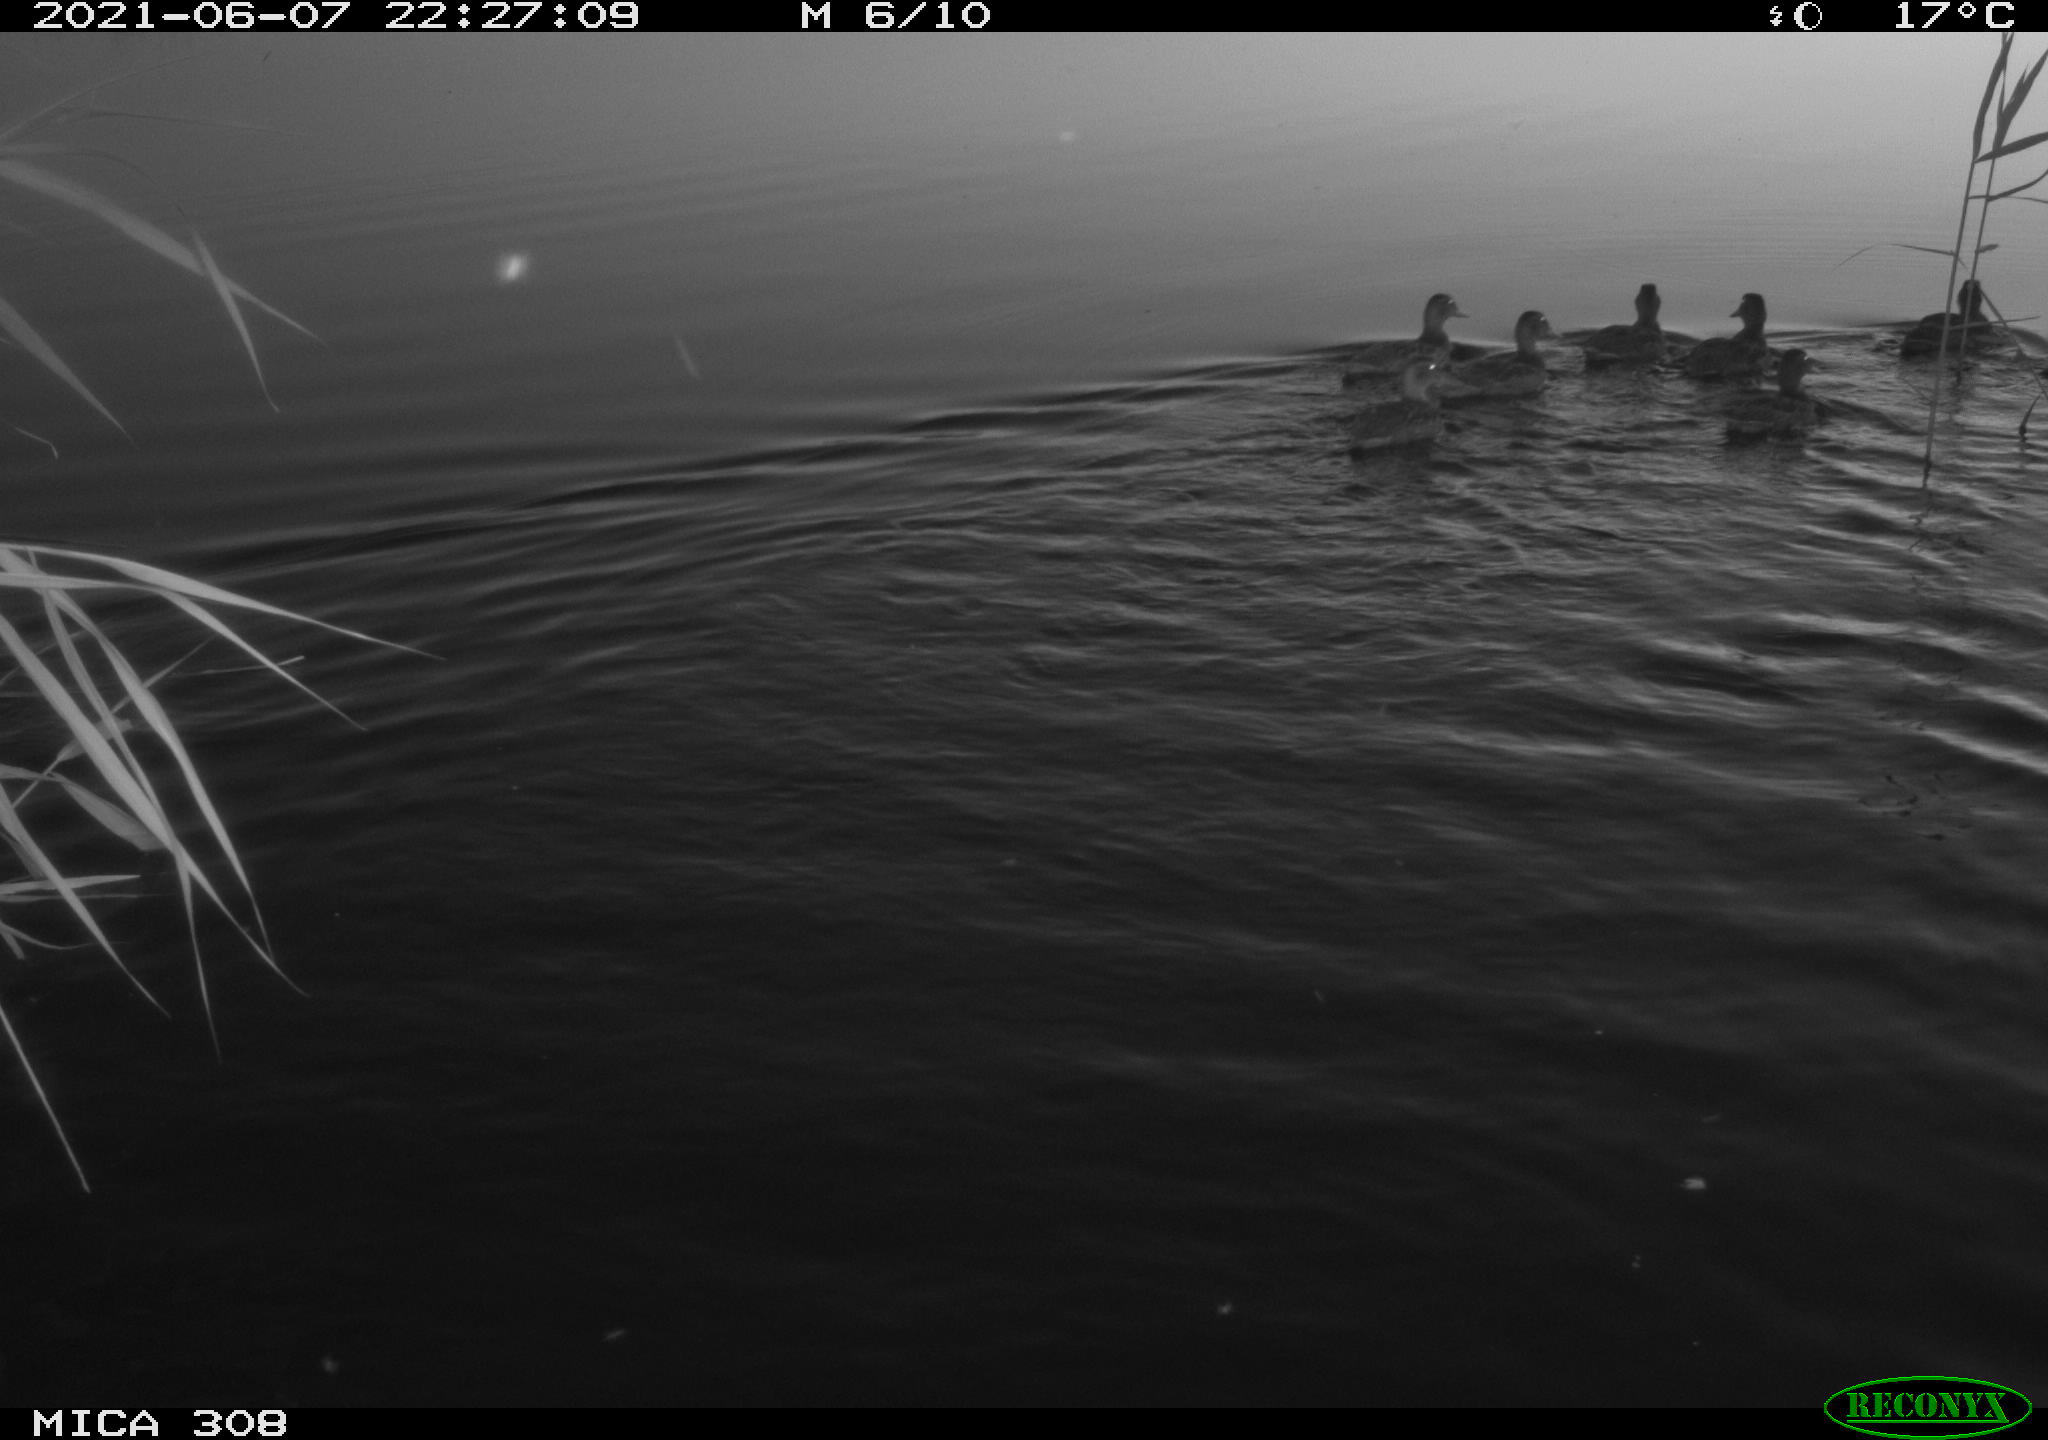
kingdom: Animalia
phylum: Chordata
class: Aves
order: Anseriformes
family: Anatidae
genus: Anas
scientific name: Anas platyrhynchos
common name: Mallard
